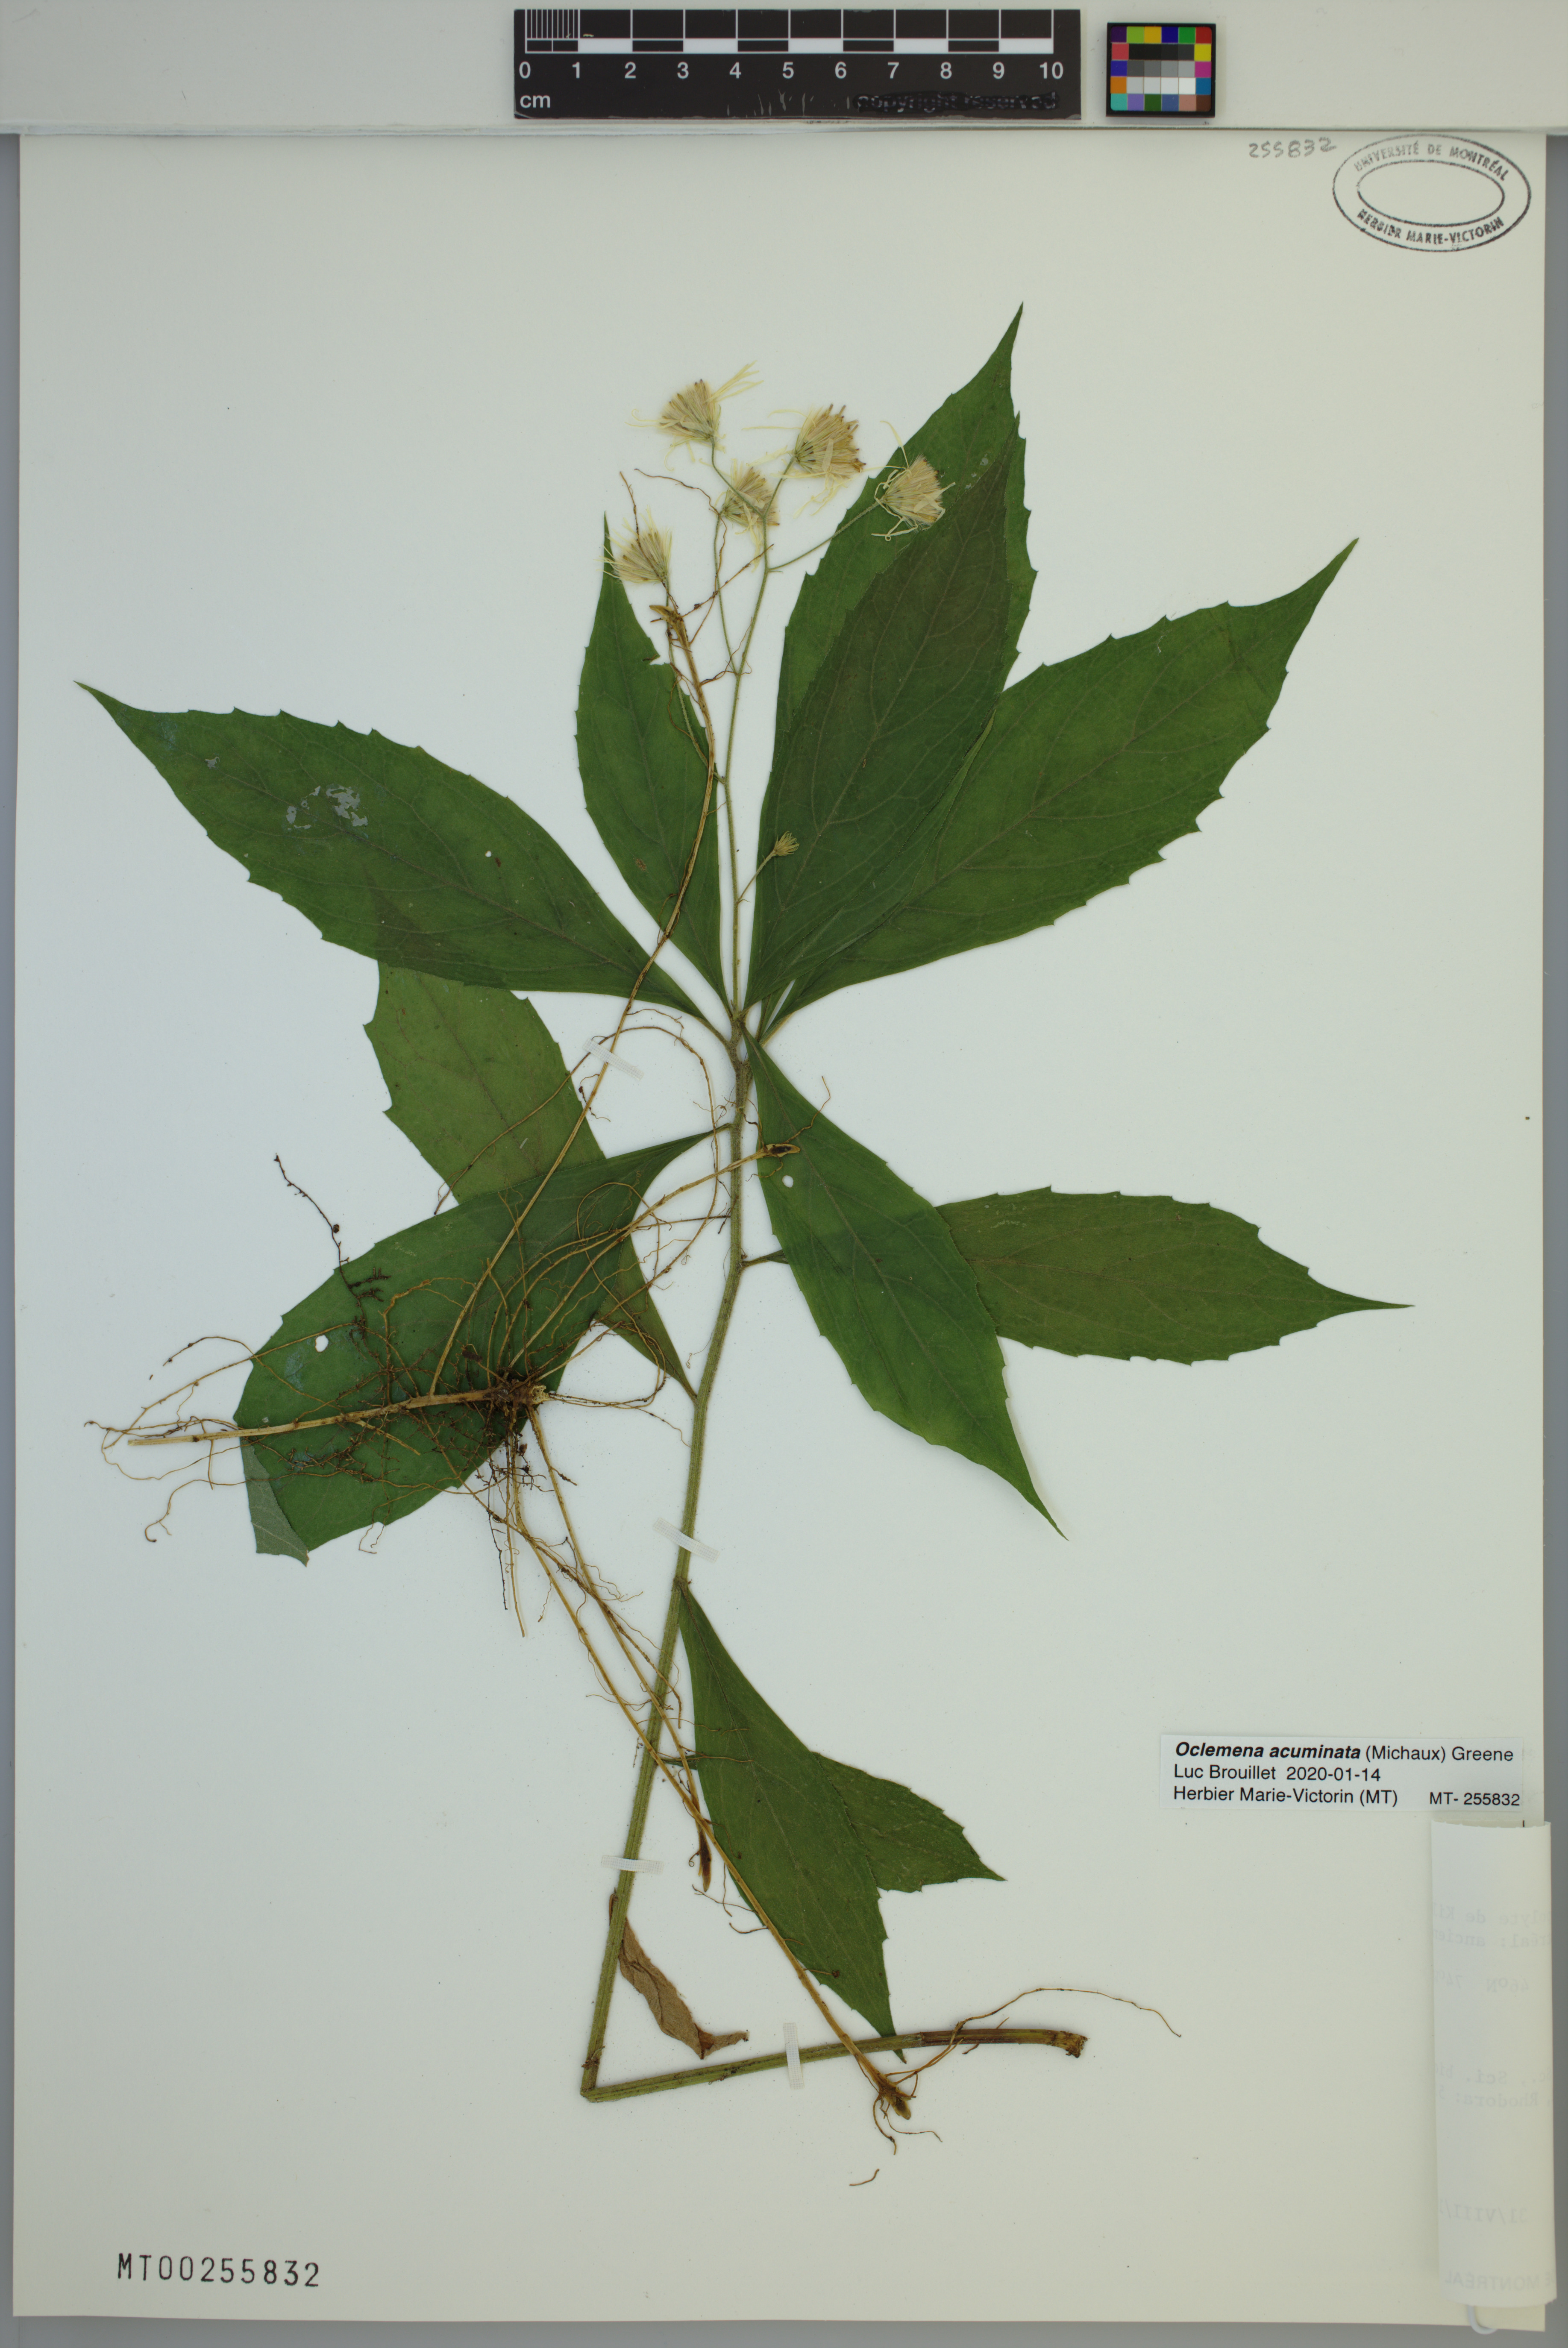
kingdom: Plantae
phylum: Tracheophyta
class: Magnoliopsida
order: Asterales
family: Asteraceae
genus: Oclemena
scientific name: Oclemena acuminata
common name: Mountain aster
